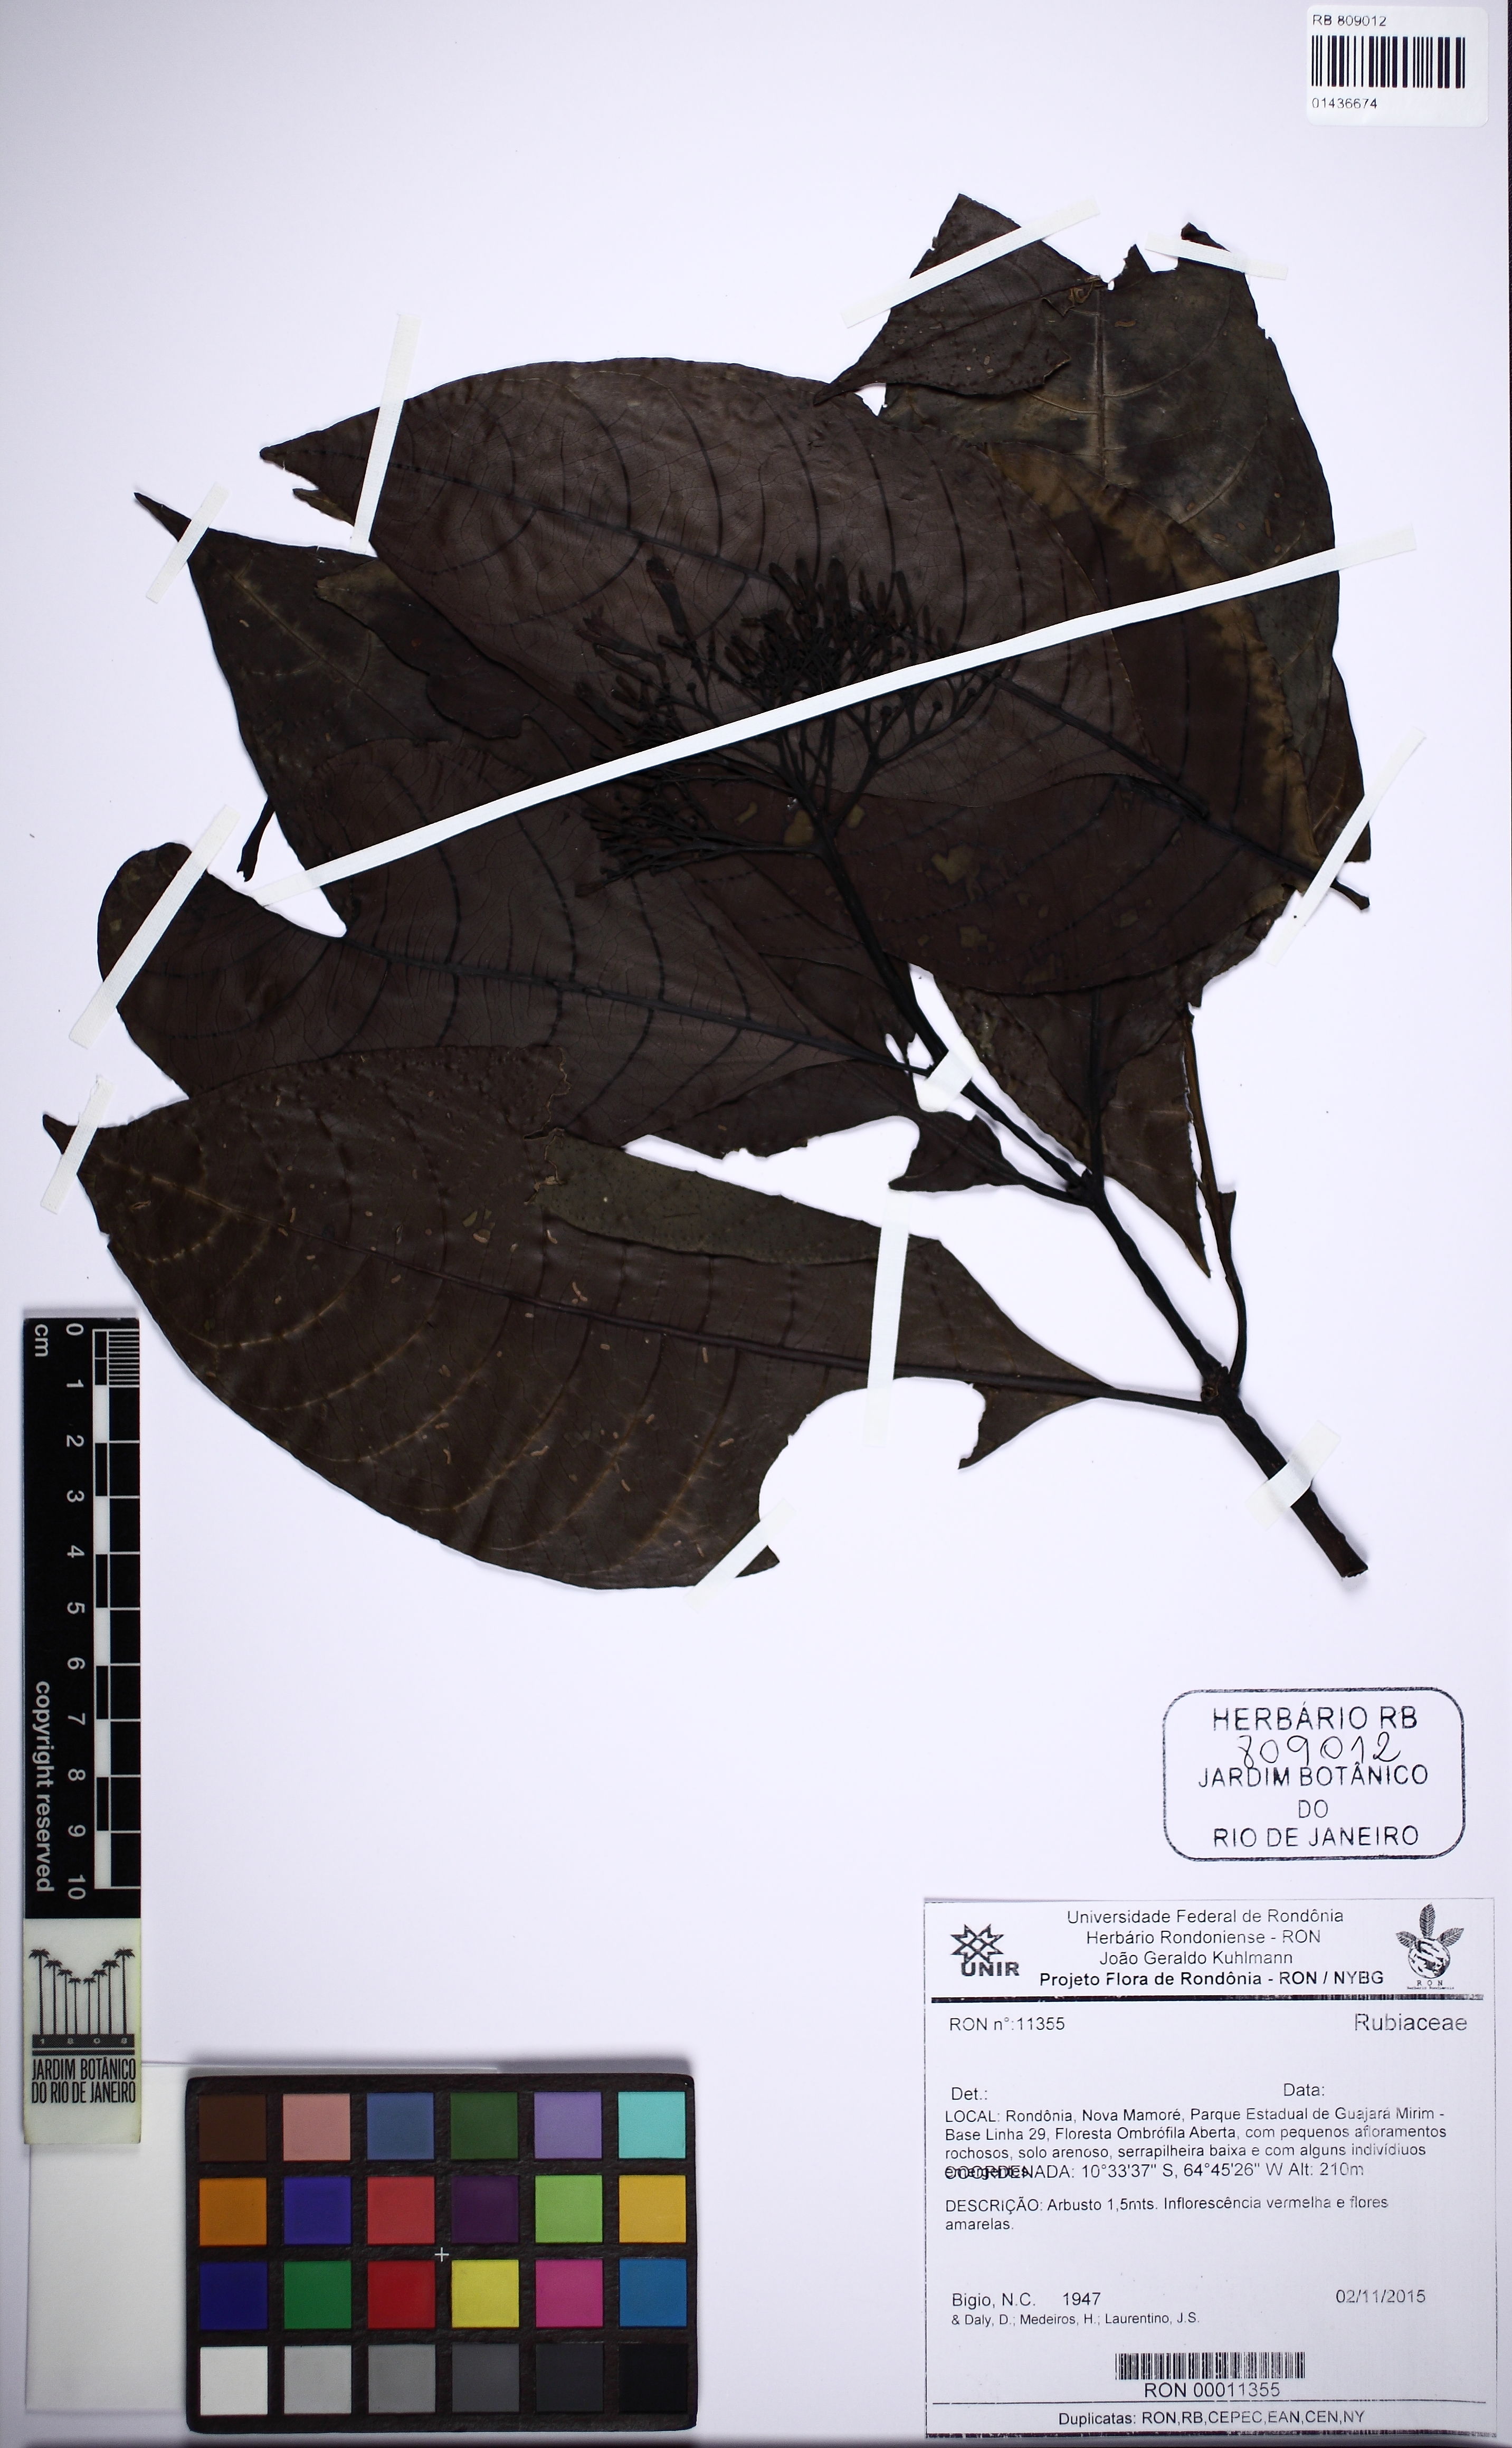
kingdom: Plantae
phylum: Tracheophyta
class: Magnoliopsida
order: Gentianales
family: Rubiaceae
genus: Palicourea
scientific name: Palicourea
